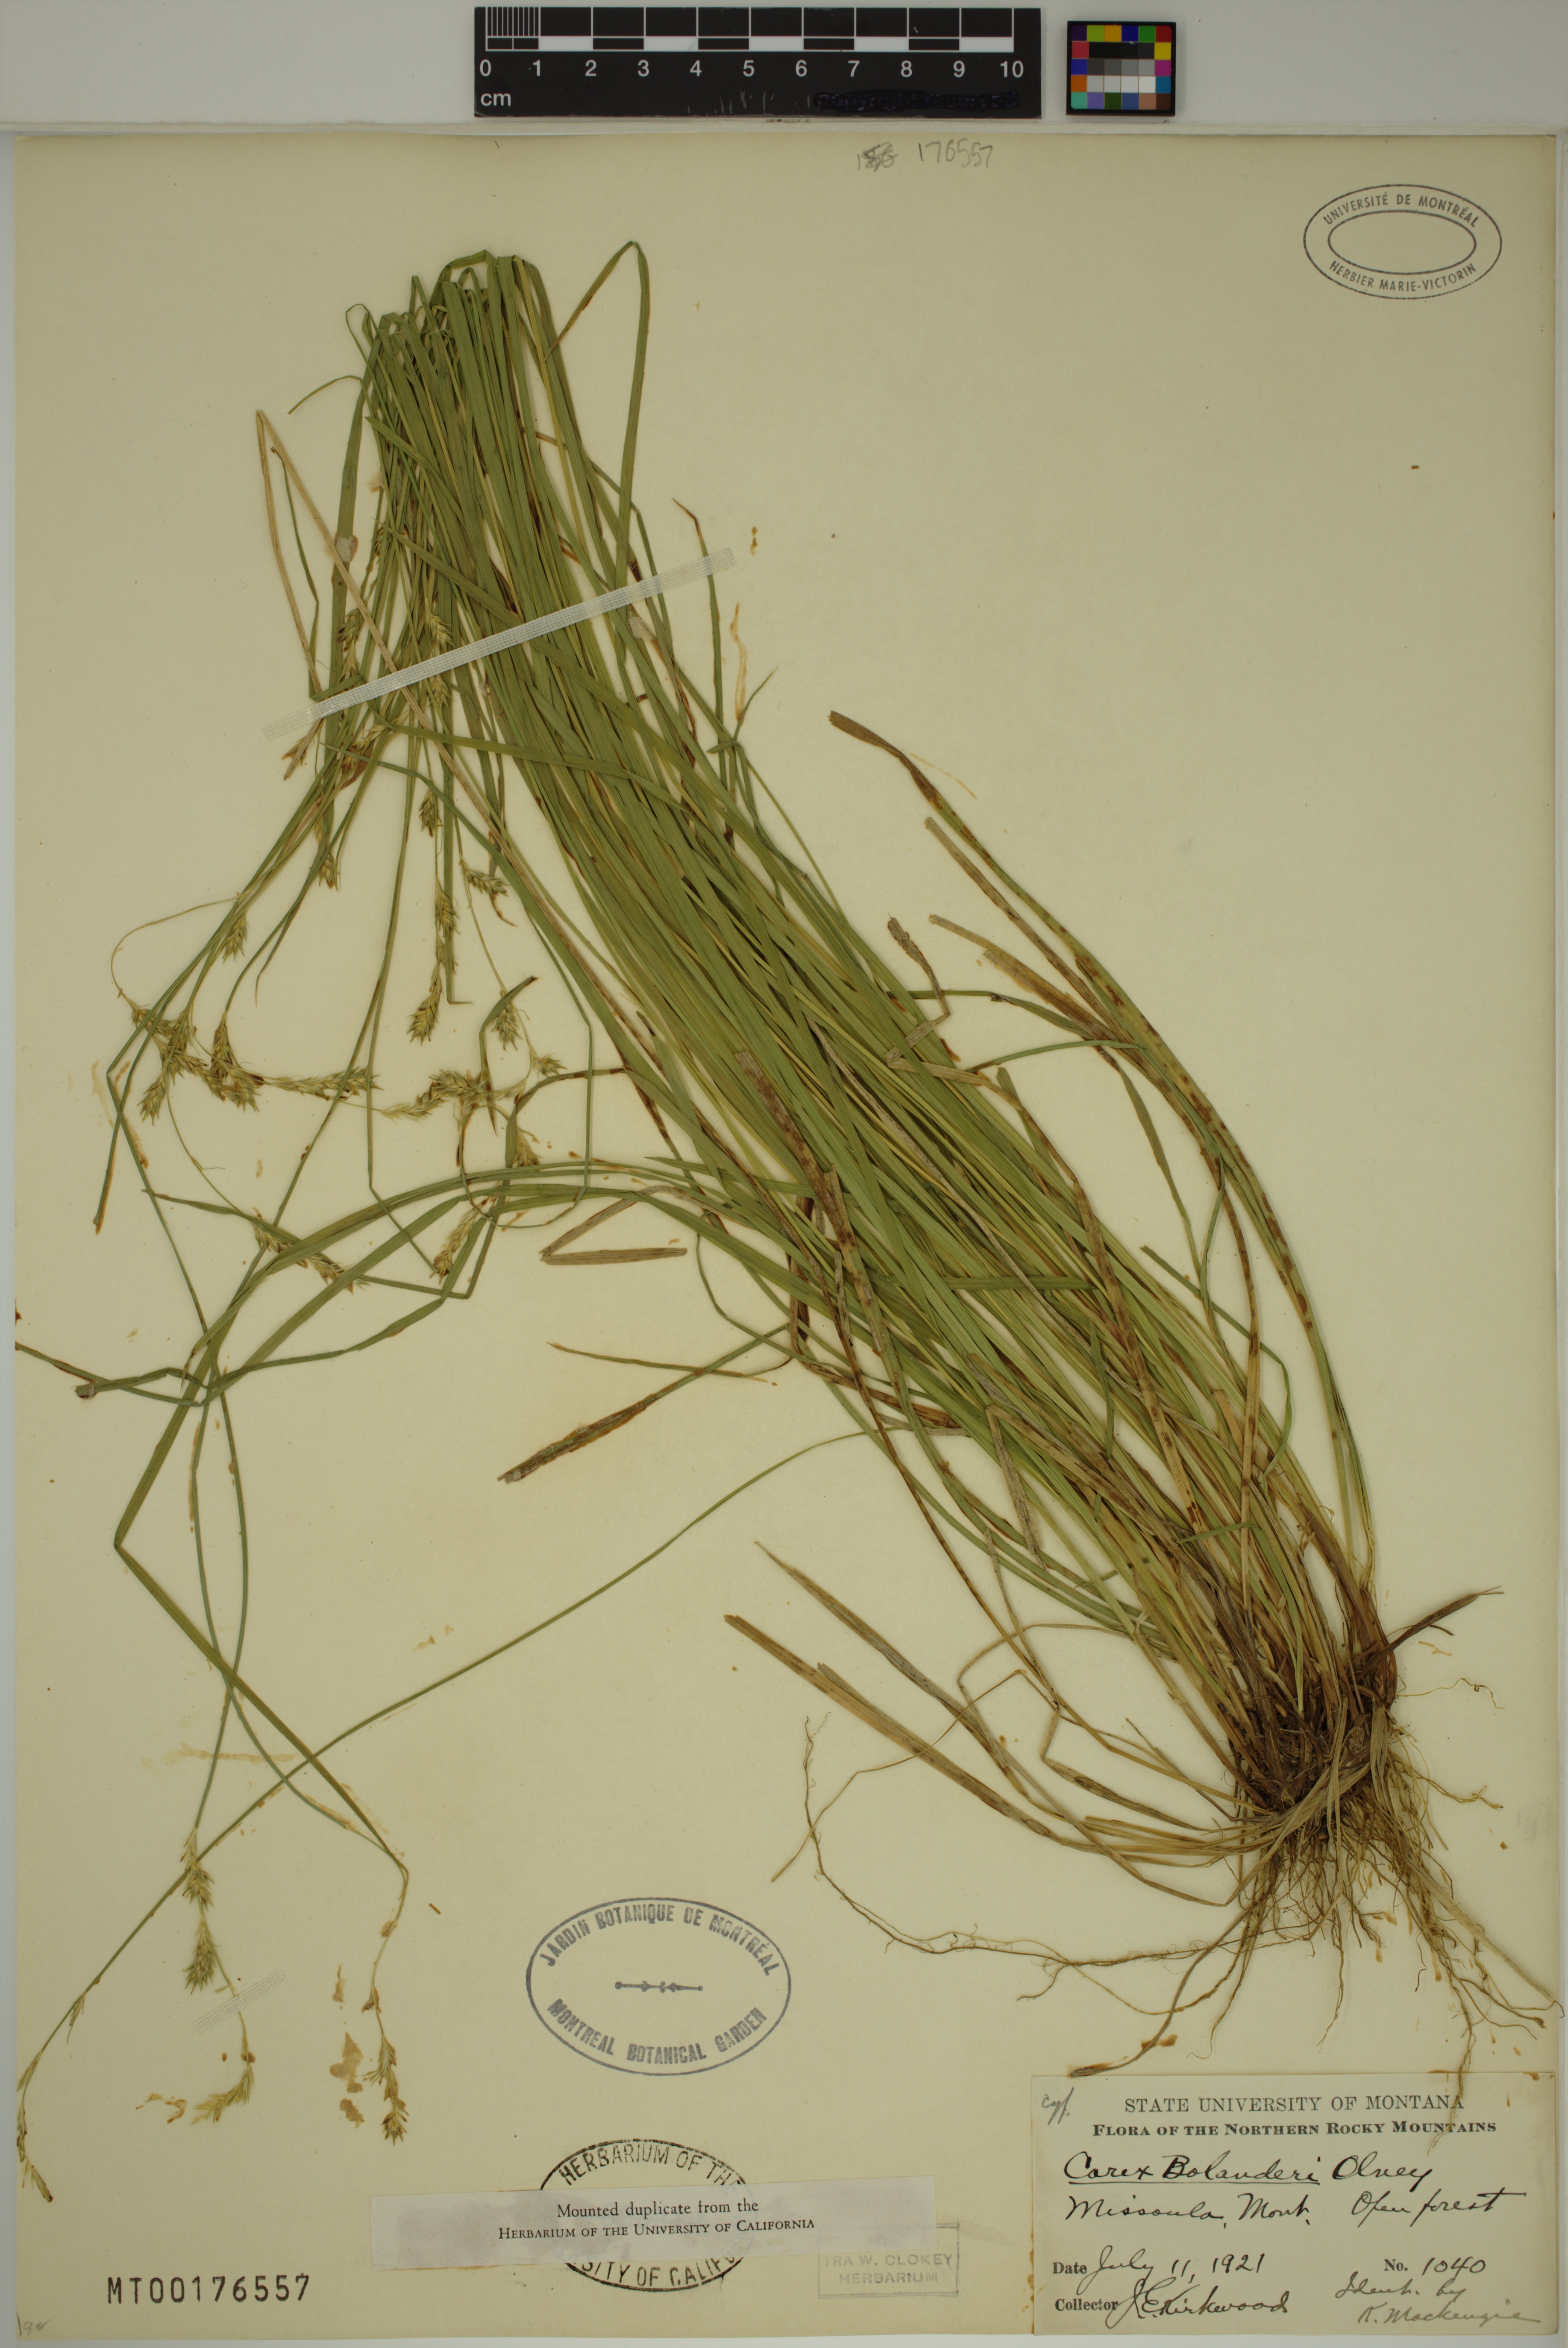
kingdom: Plantae
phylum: Tracheophyta
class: Liliopsida
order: Poales
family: Cyperaceae
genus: Carex
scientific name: Carex bolanderi
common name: Bolander's sedge
